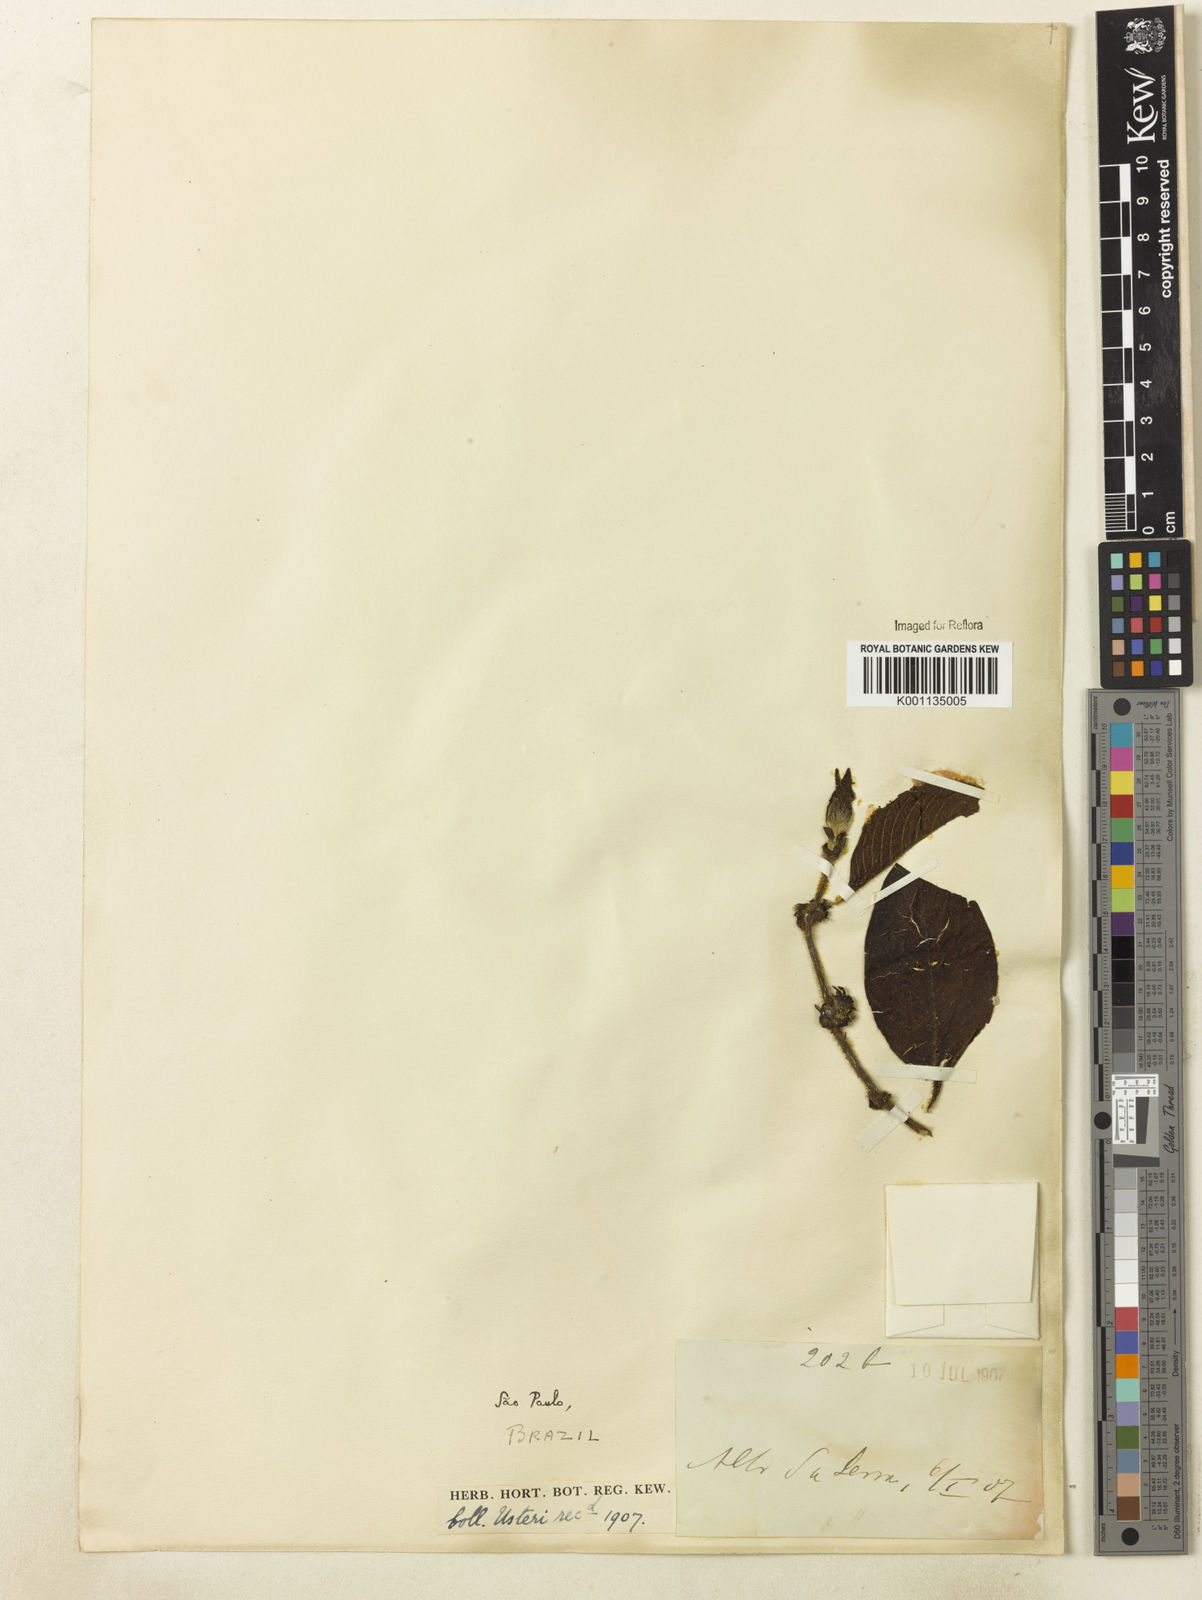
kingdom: Plantae
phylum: Tracheophyta
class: Magnoliopsida
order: Gentianales
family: Rubiaceae
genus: Sabicea
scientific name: Sabicea villosa
